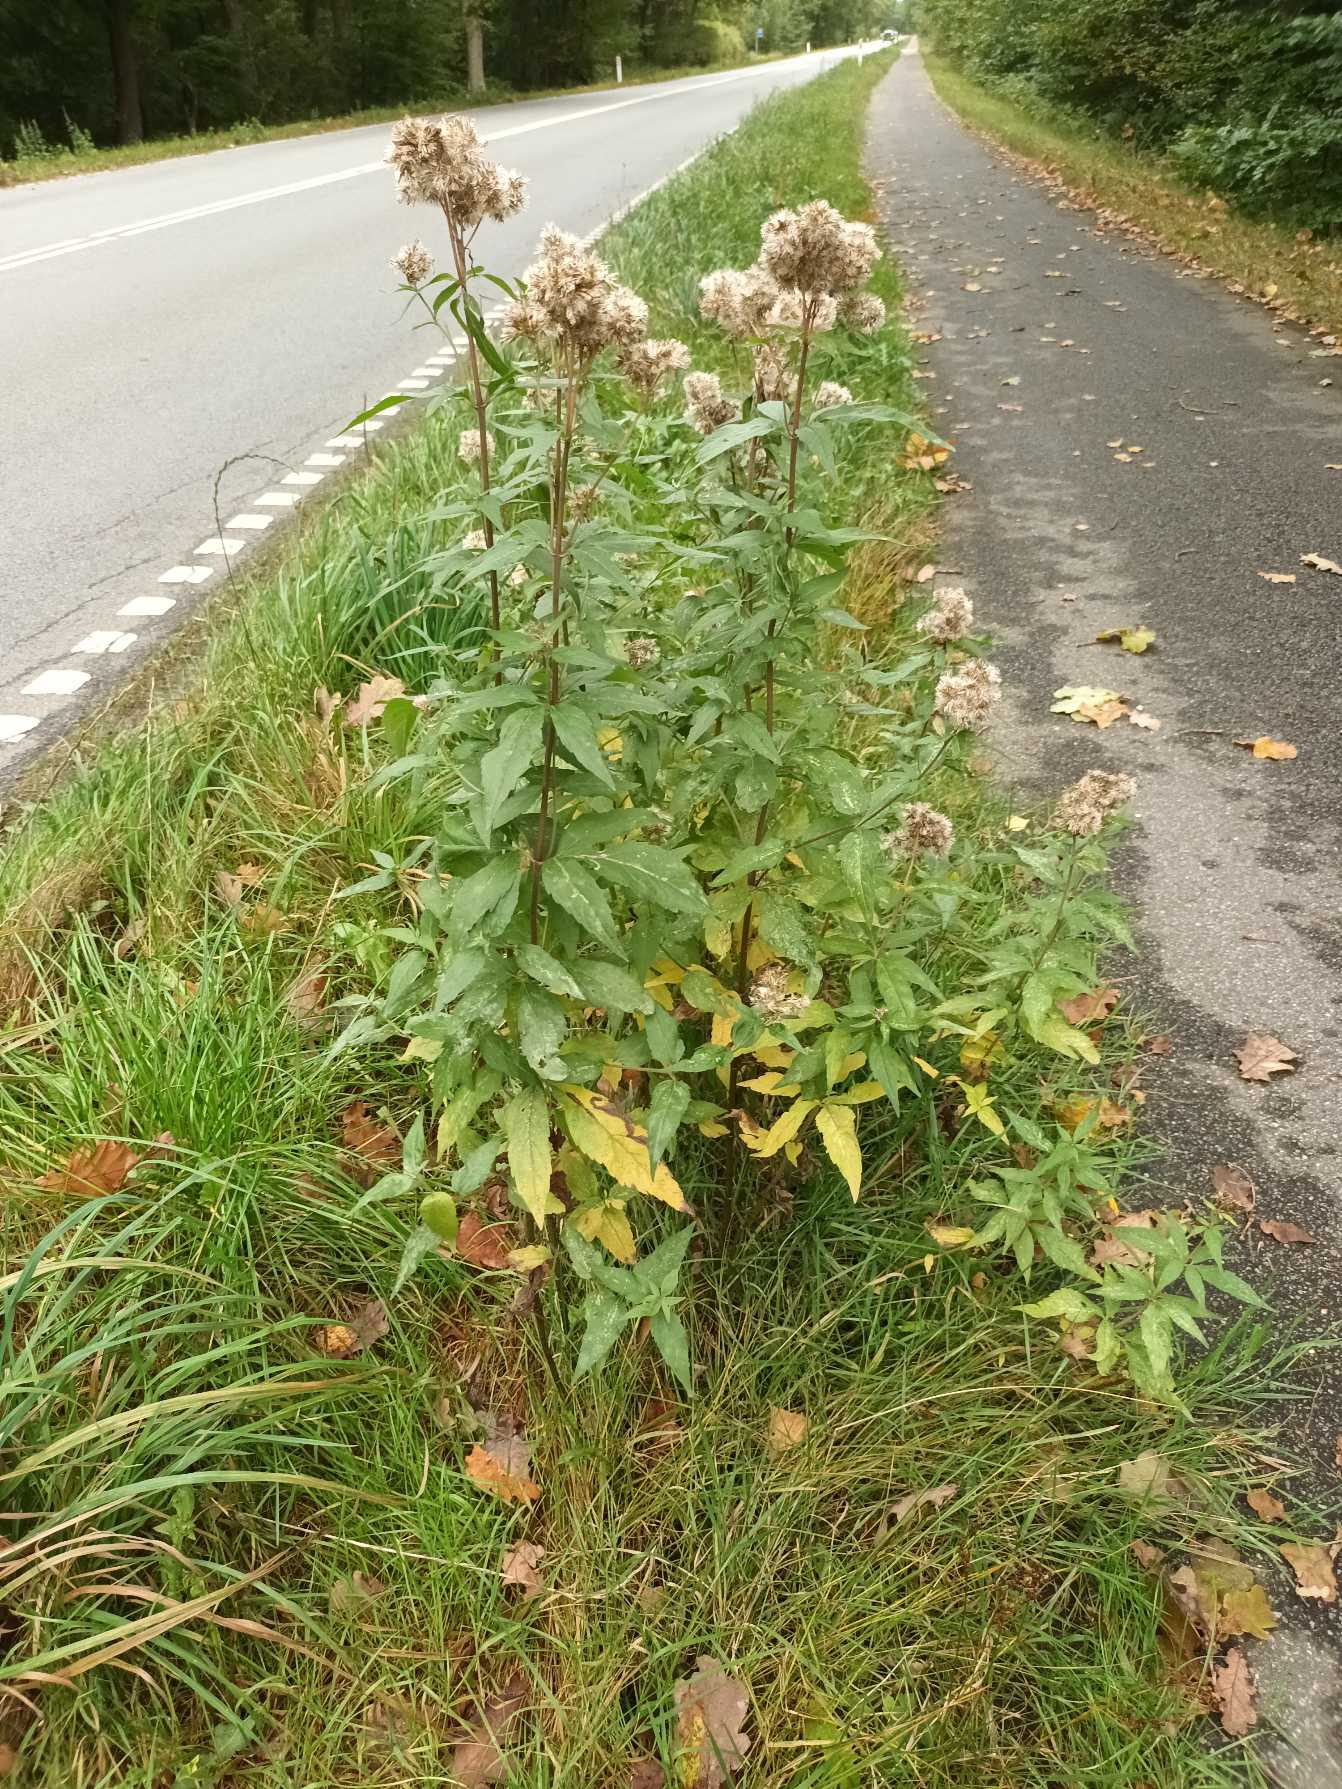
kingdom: Plantae
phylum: Tracheophyta
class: Magnoliopsida
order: Asterales
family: Asteraceae
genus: Eupatorium
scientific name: Eupatorium cannabinum
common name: Hjortetrøst
